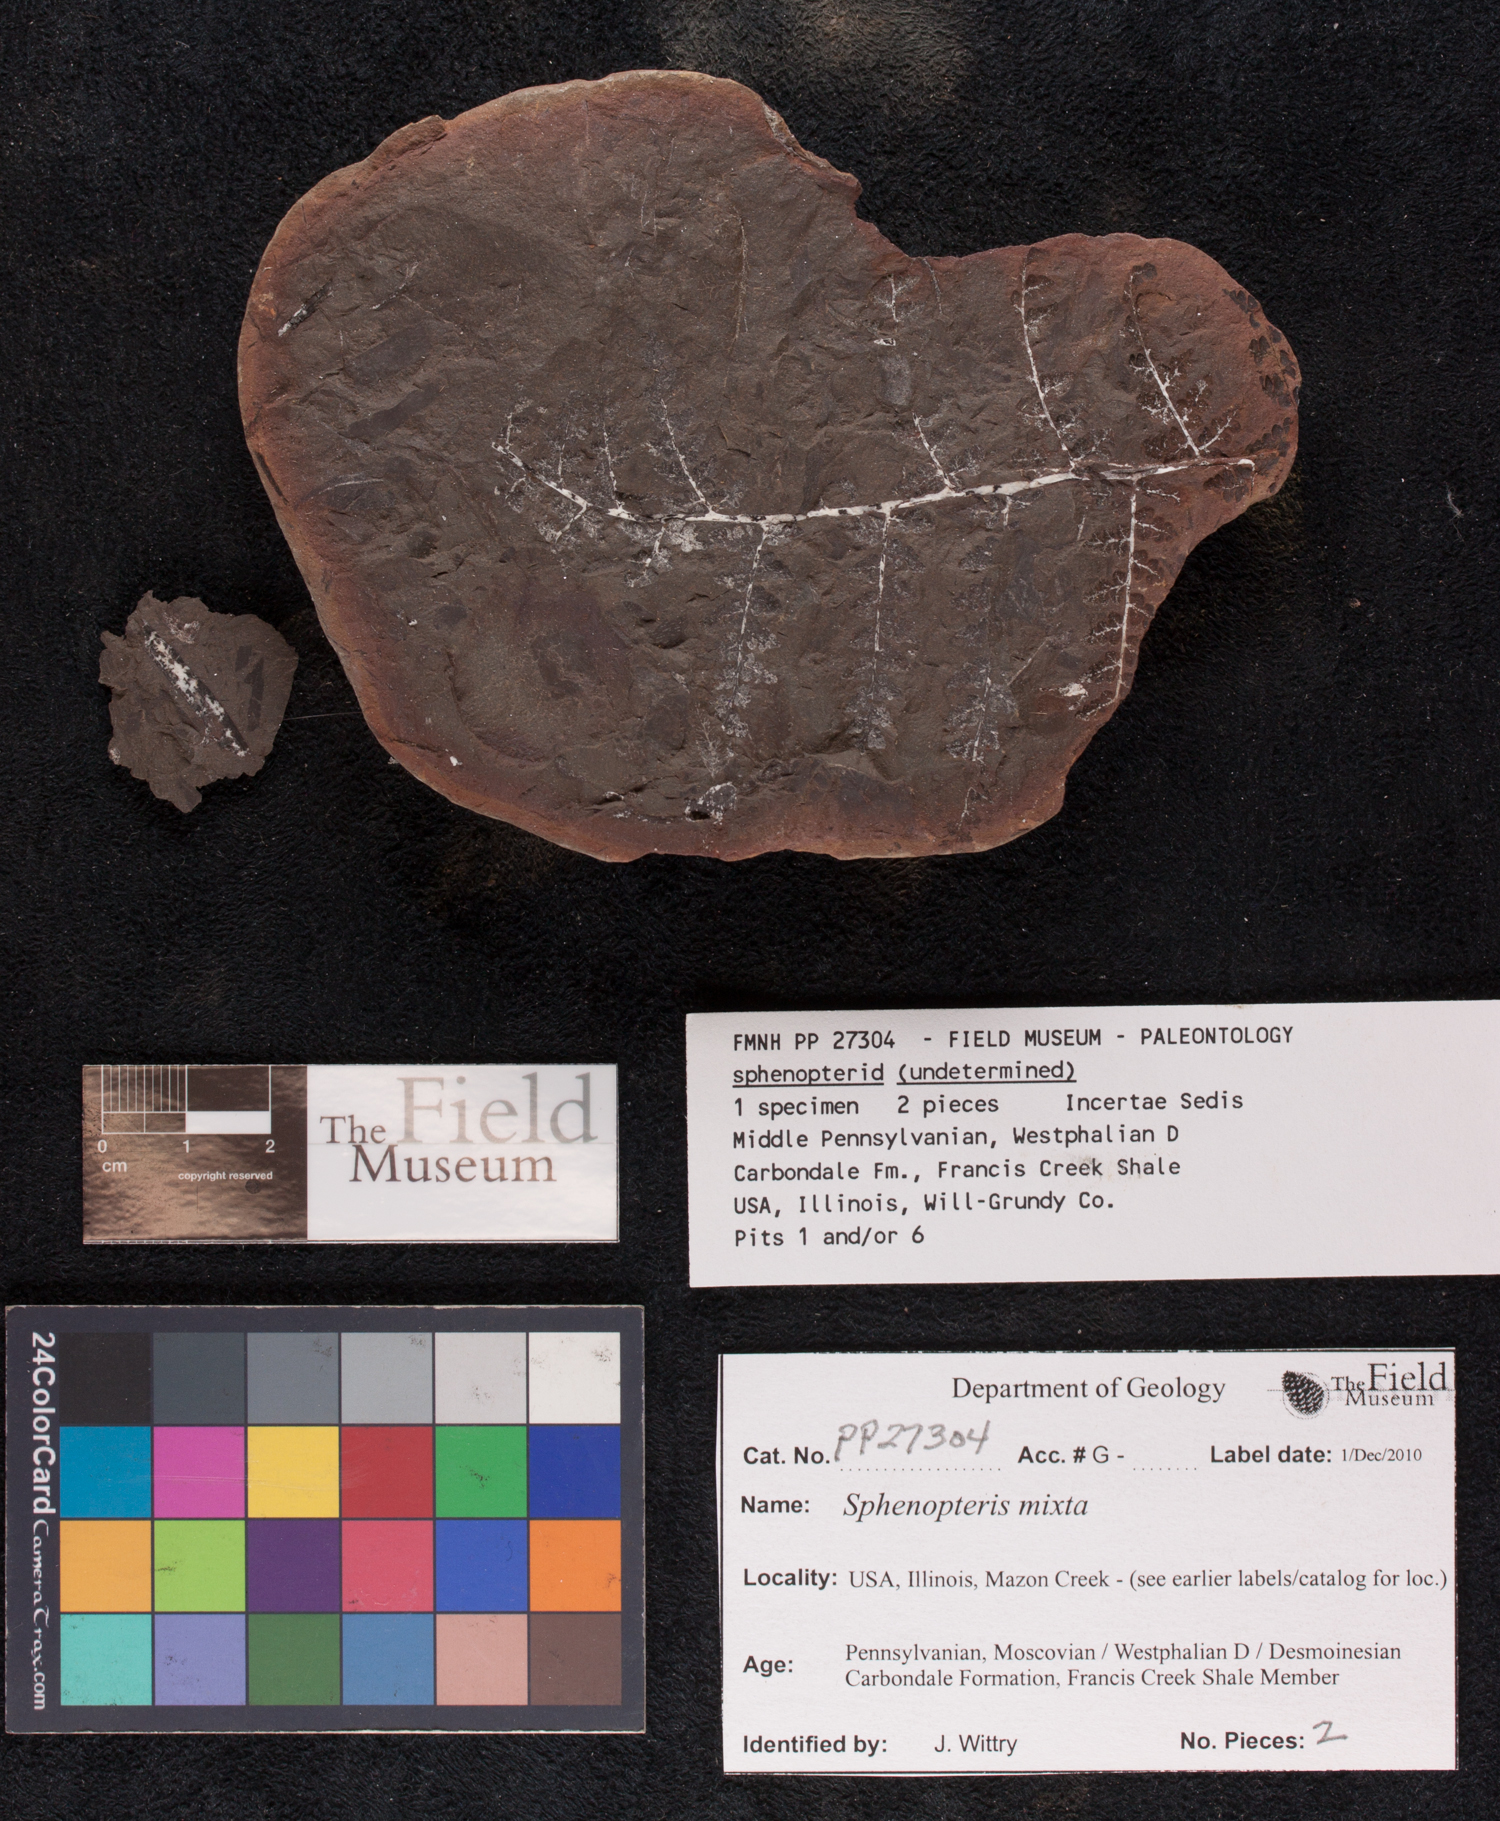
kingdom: Plantae
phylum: Tracheophyta
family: Lyginopteridaceae
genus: Sphenopteris
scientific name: Sphenopteris
